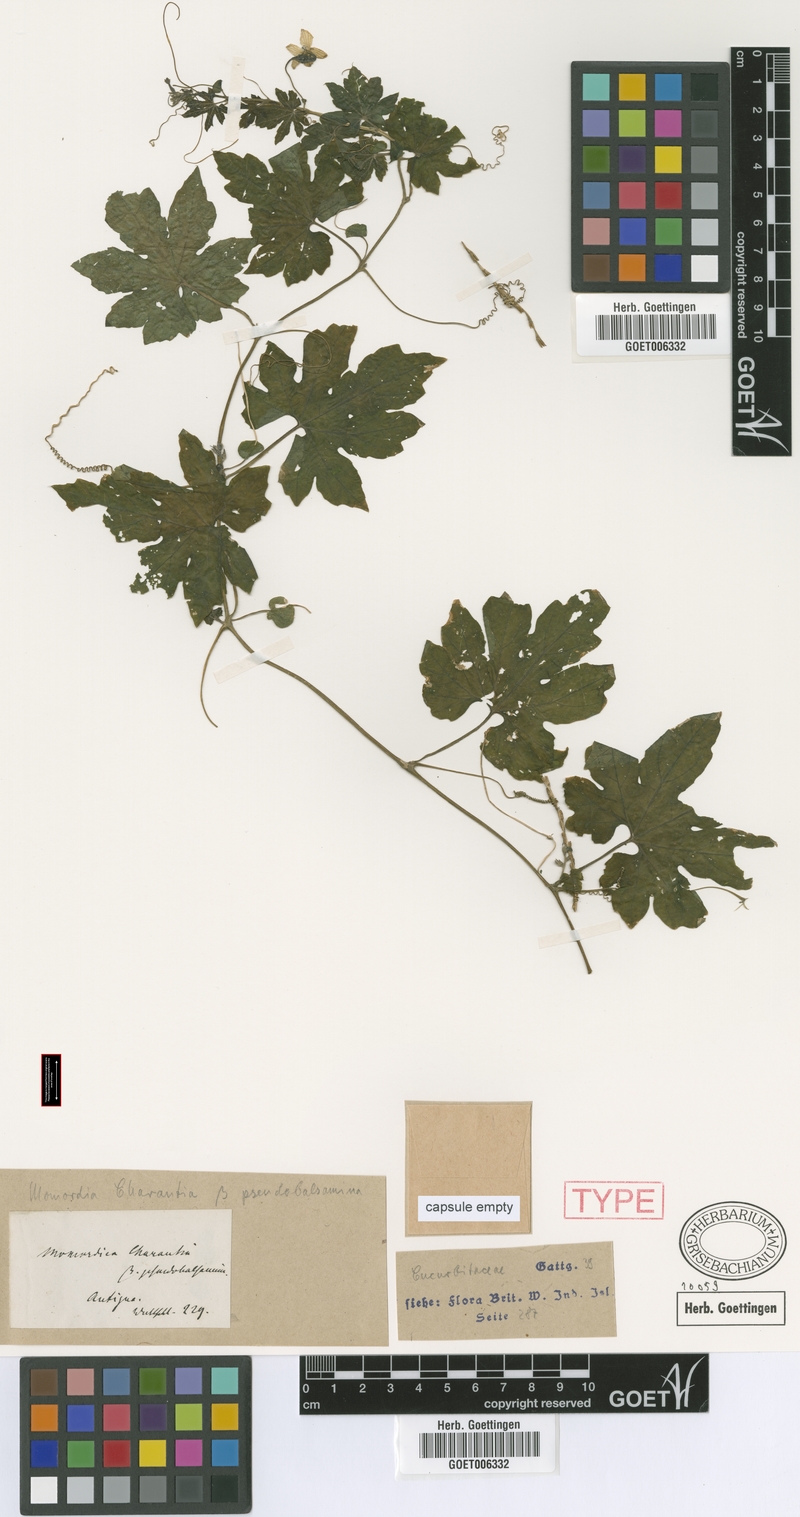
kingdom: Plantae
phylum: Tracheophyta
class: Magnoliopsida
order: Cucurbitales
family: Cucurbitaceae
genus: Momordica
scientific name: Momordica charantia
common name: Balsampear
